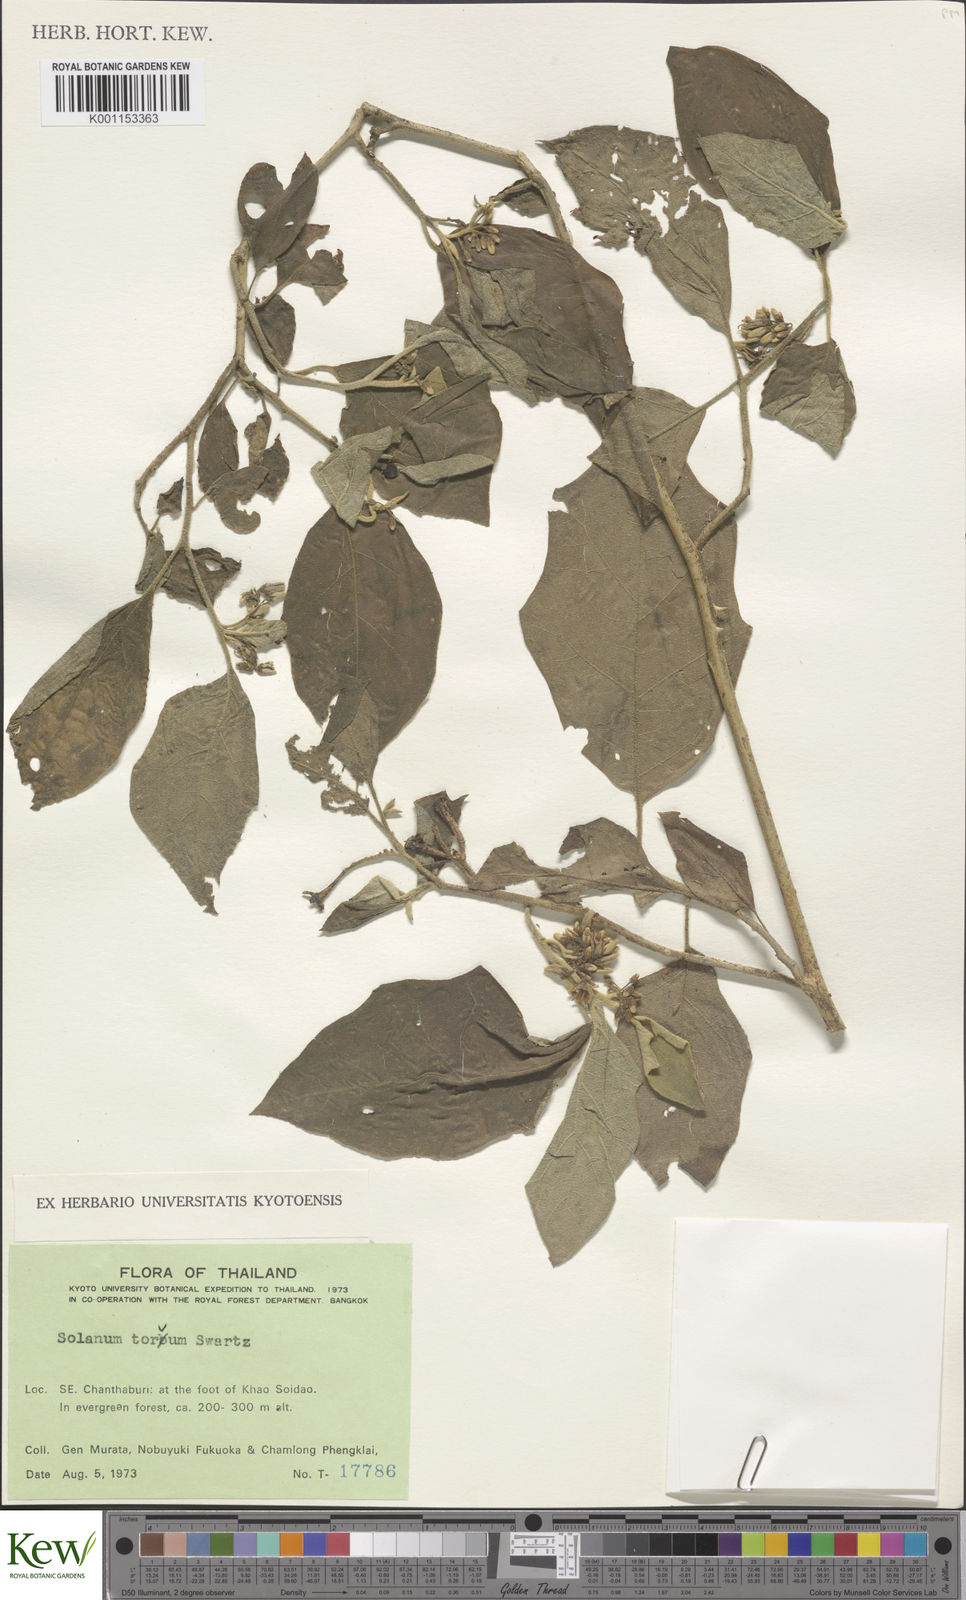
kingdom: Plantae
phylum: Tracheophyta
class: Magnoliopsida
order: Solanales
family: Solanaceae
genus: Solanum
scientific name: Solanum torvum
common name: Turkey berry
